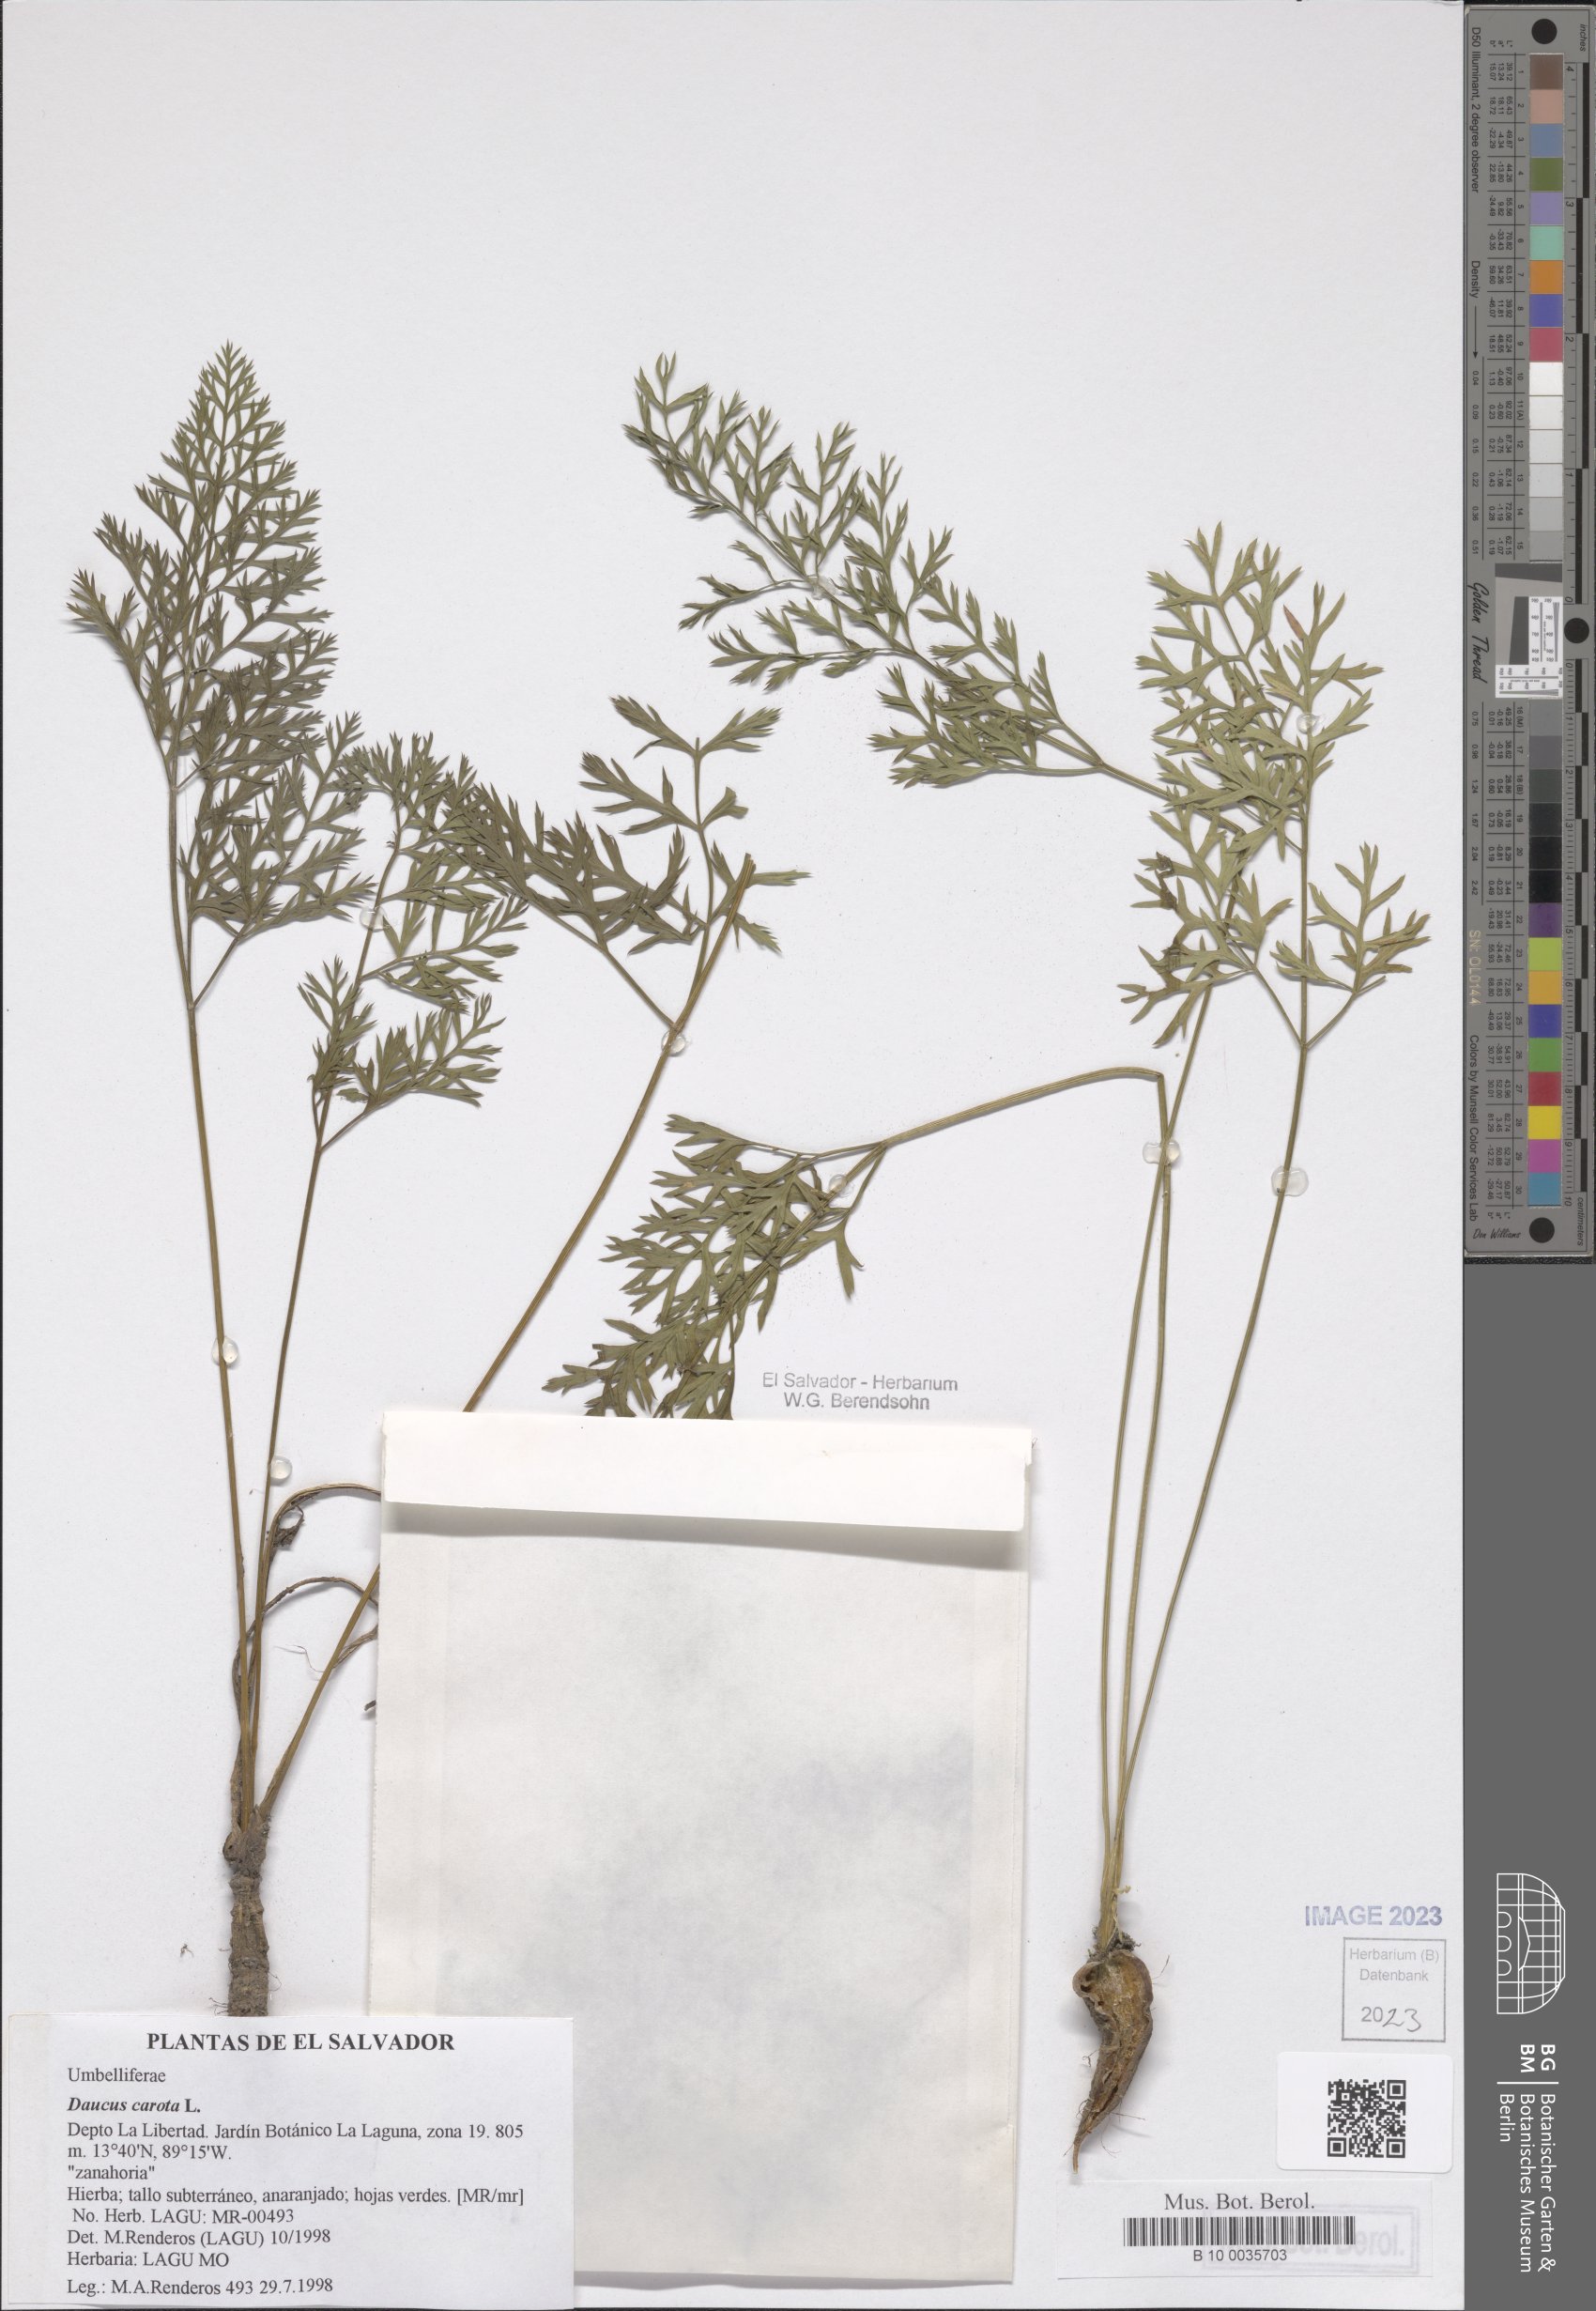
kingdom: Plantae
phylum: Tracheophyta
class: Magnoliopsida
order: Apiales
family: Apiaceae
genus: Daucus
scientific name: Daucus carota
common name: Wild carrot
